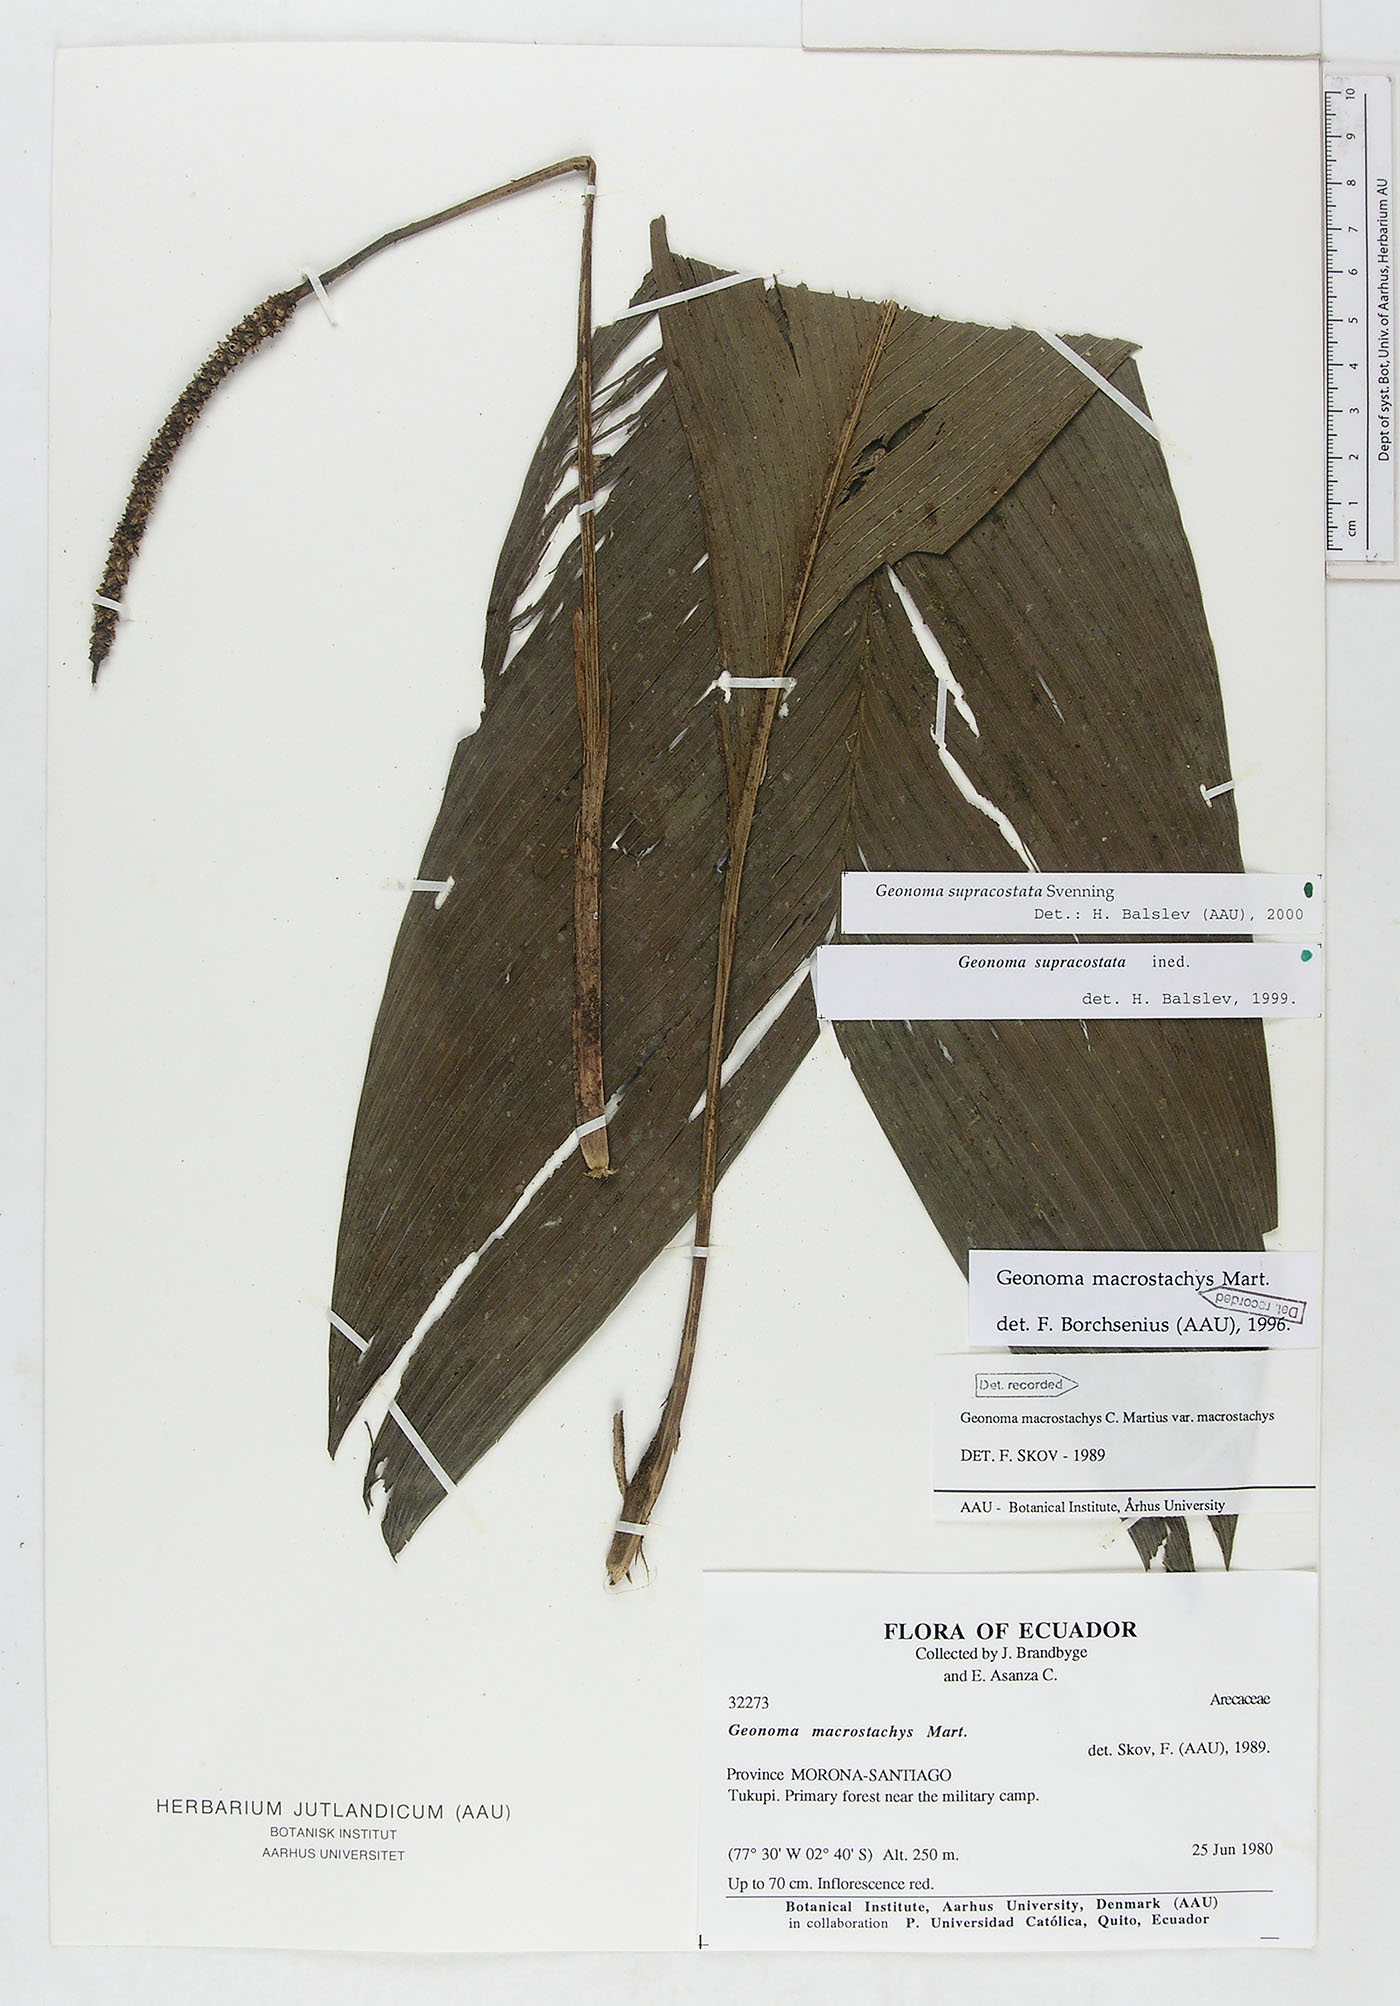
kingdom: Plantae
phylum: Tracheophyta
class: Liliopsida
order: Arecales
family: Arecaceae
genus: Geonoma
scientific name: Geonoma macrostachys
